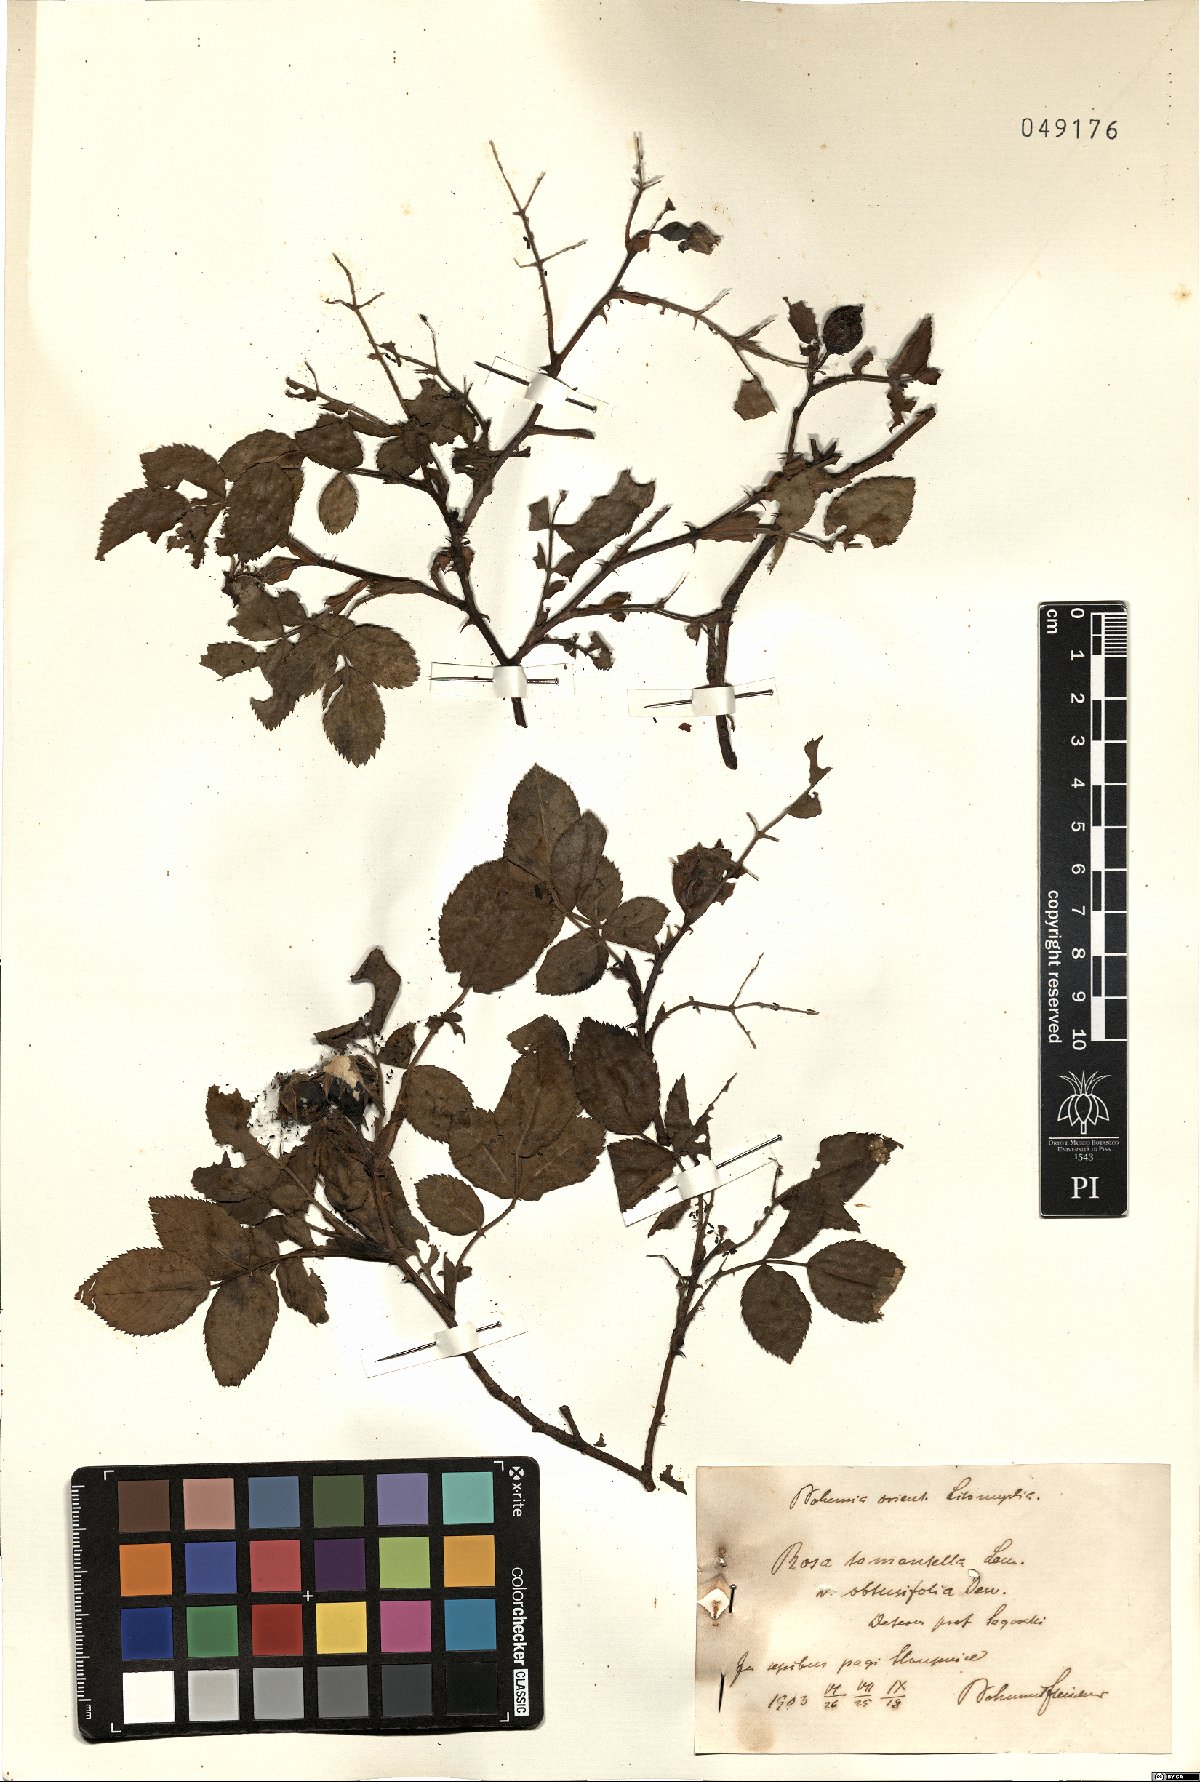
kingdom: Plantae
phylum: Tracheophyta
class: Magnoliopsida
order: Rosales
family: Rosaceae
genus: Rosa
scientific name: Rosa obtusifolia
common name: Round-leaved dog-rose
